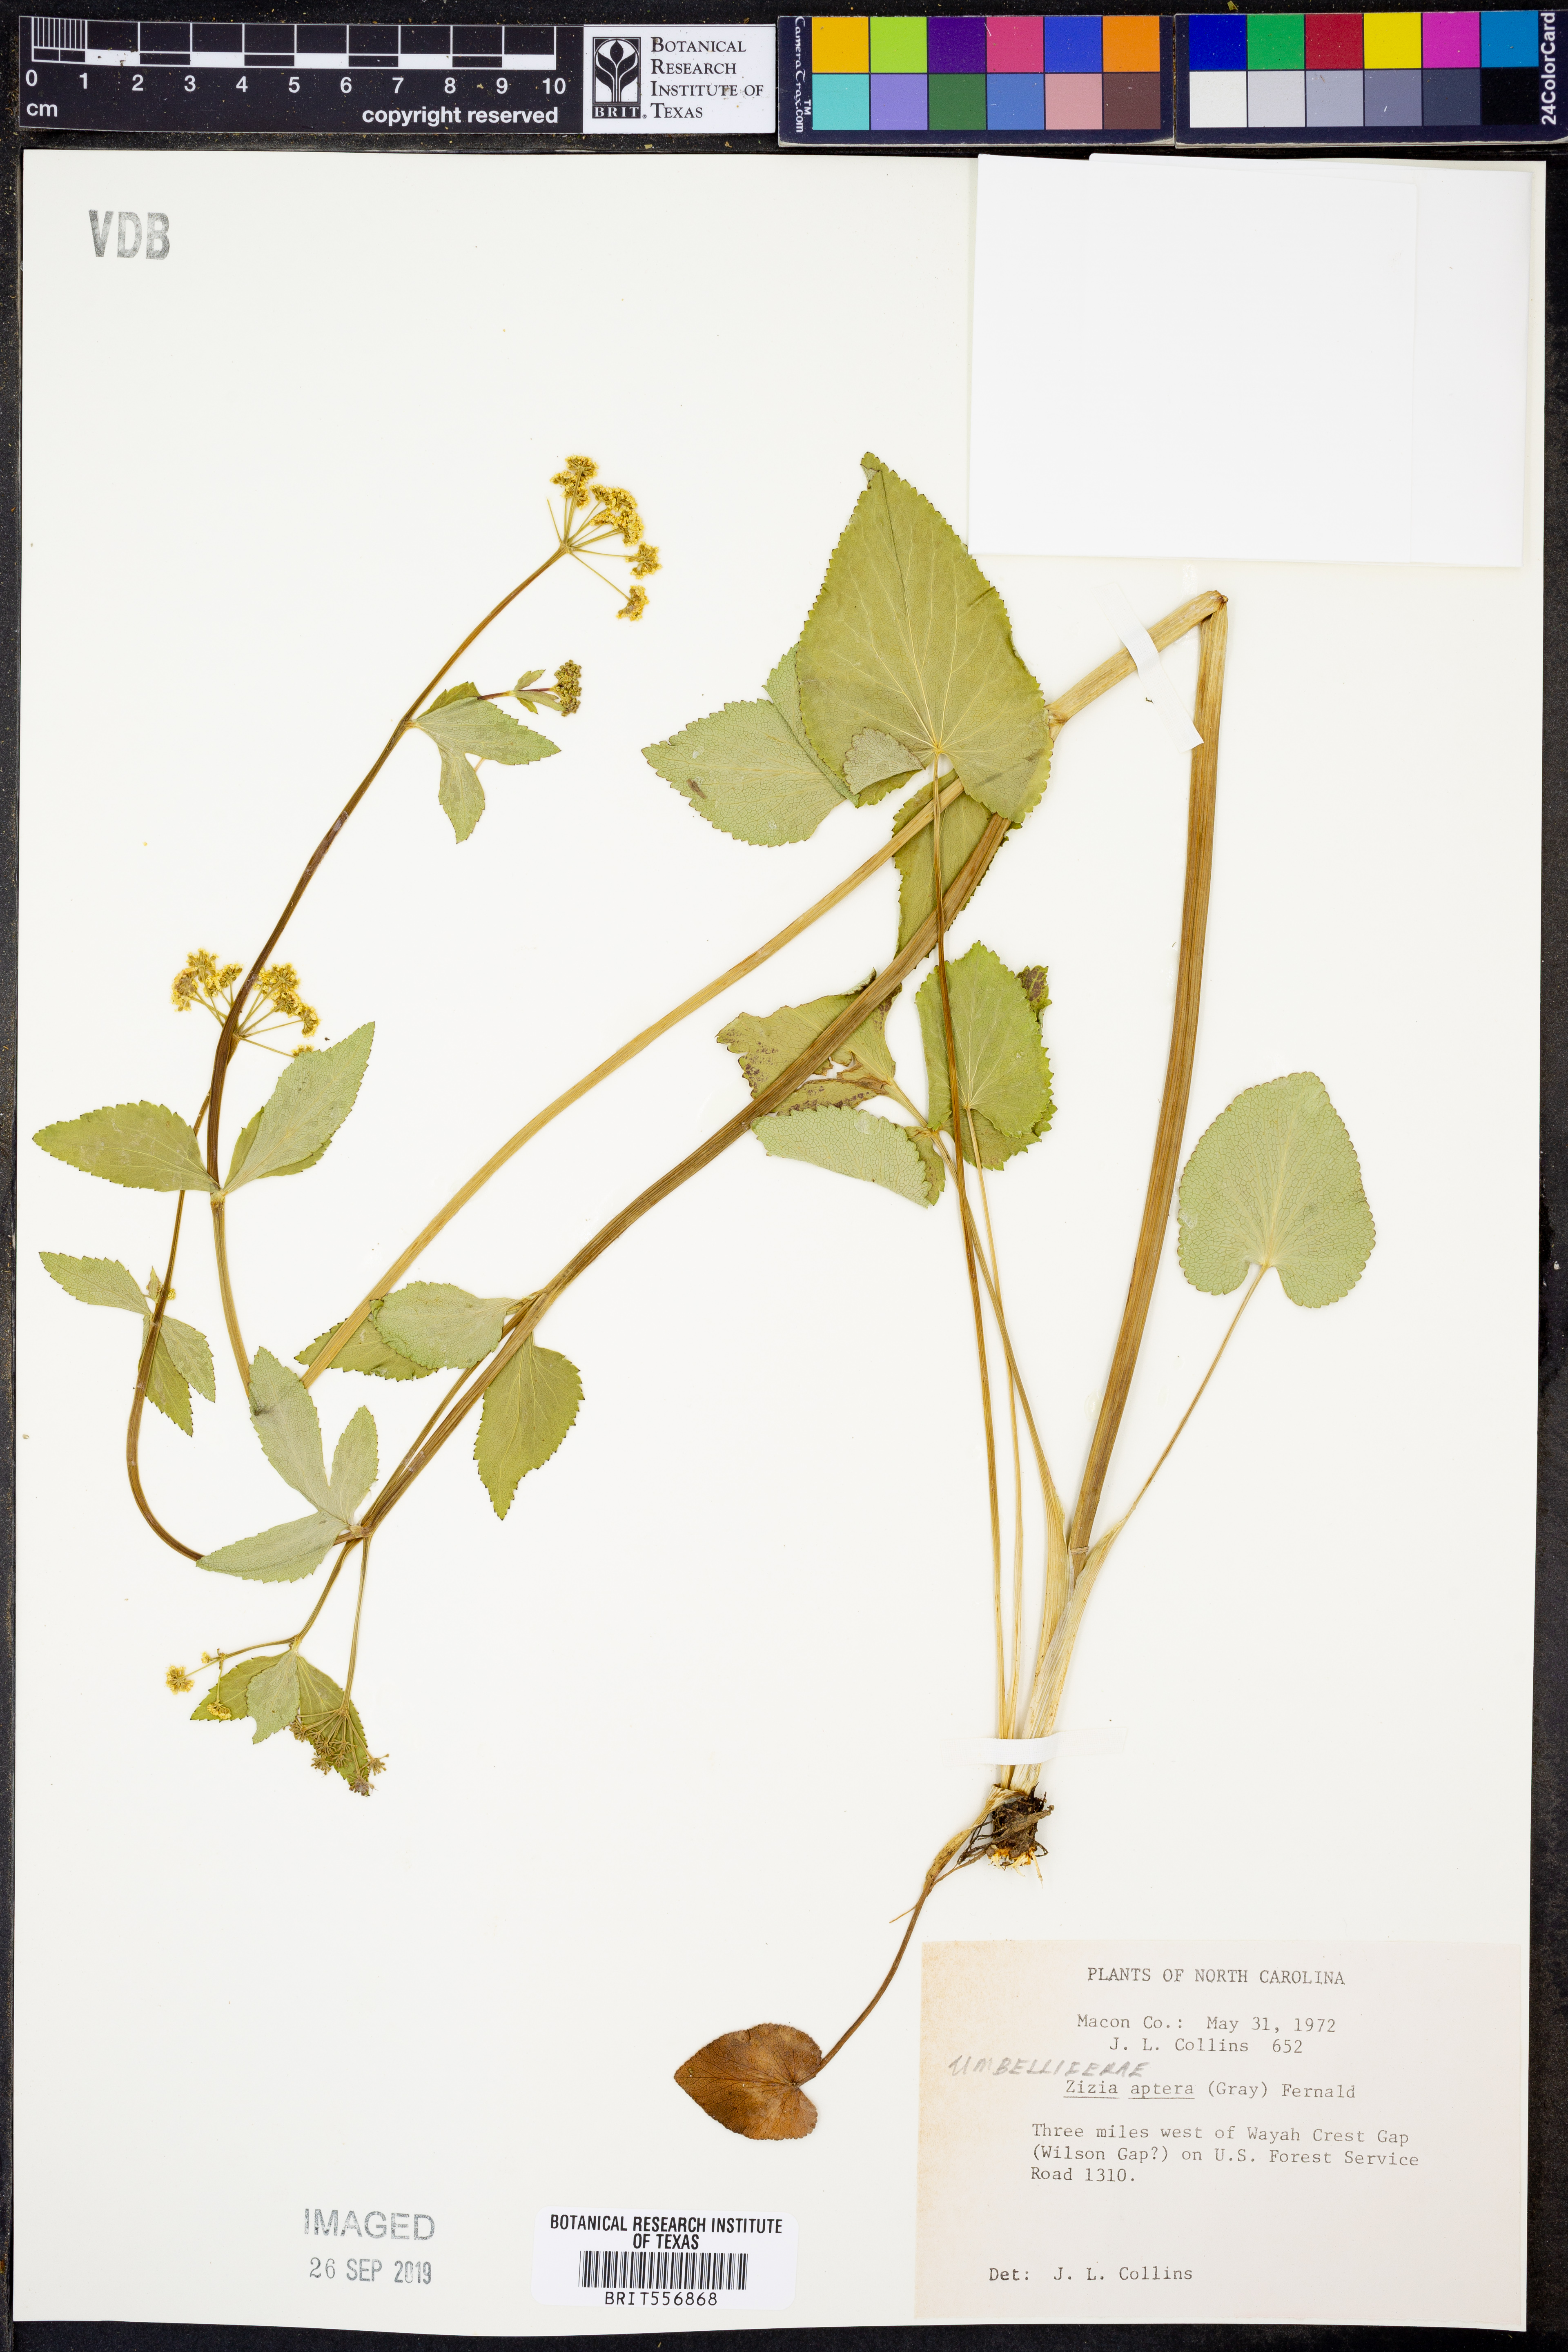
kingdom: Plantae
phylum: Tracheophyta
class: Magnoliopsida
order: Apiales
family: Apiaceae
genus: Zizia
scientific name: Zizia aptera
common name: Heart-leaved alexanders
